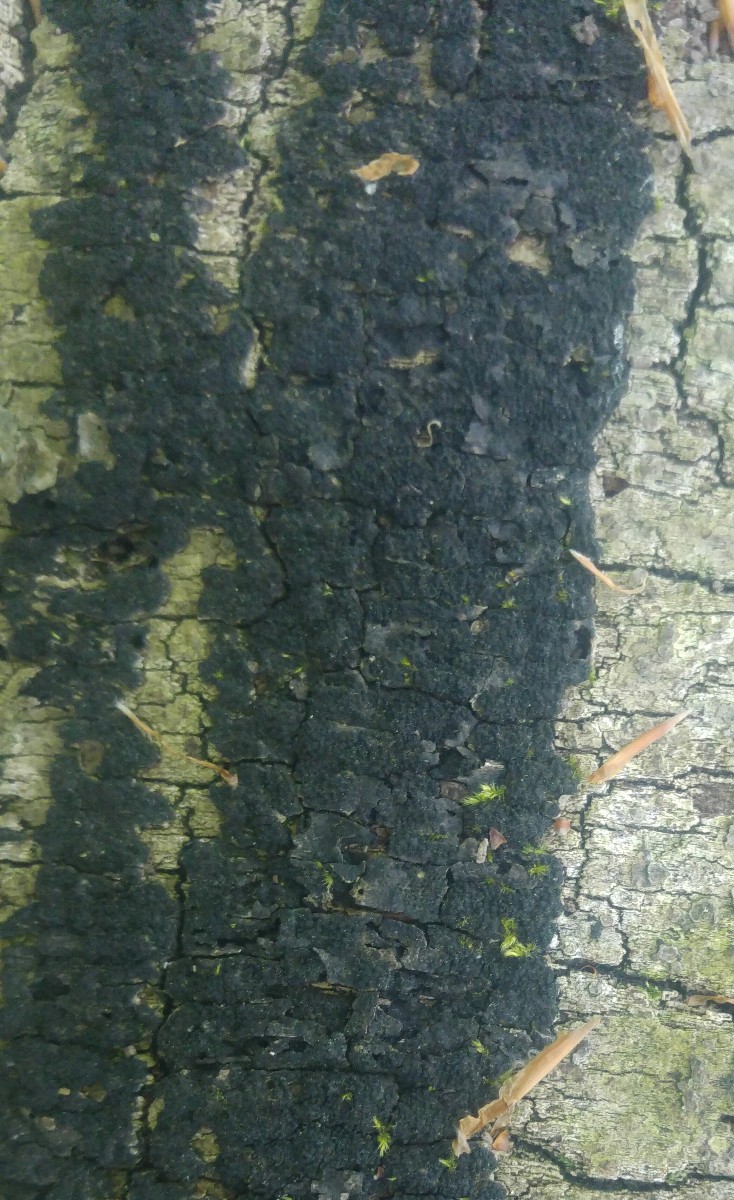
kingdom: Fungi
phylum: Ascomycota
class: Sordariomycetes
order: Xylariales
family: Diatrypaceae
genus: Eutypa
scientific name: Eutypa spinosa
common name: grov kulskorpe
